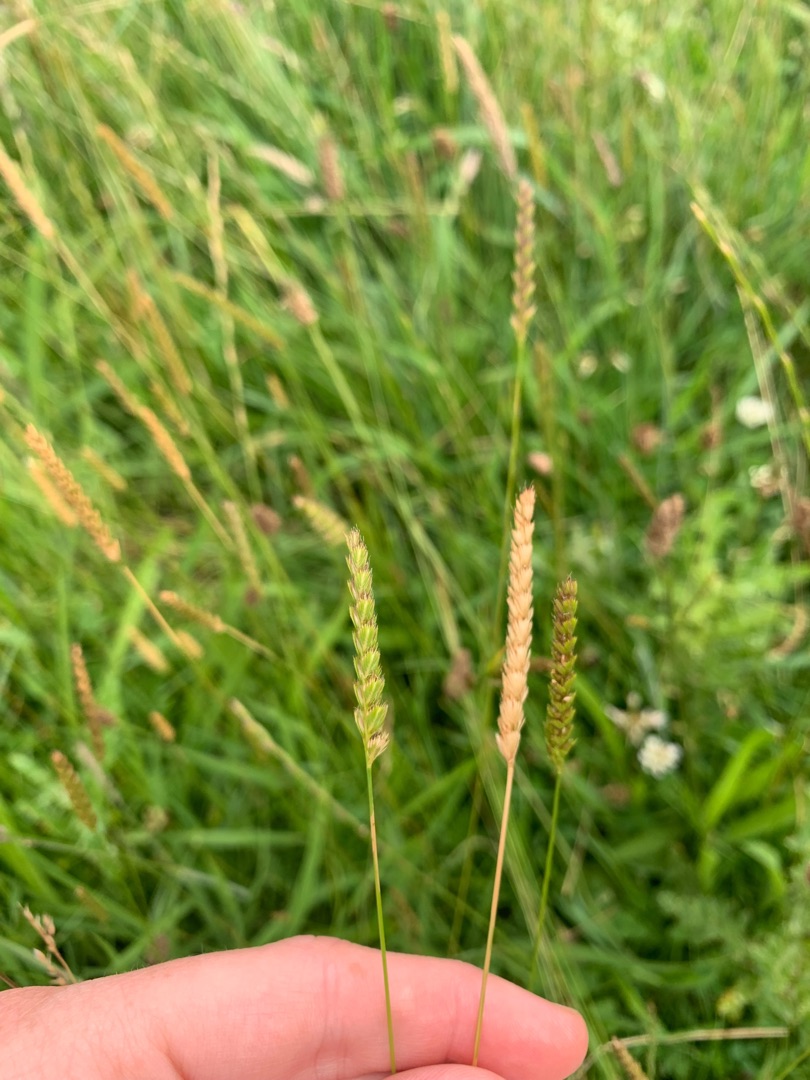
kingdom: Plantae
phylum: Tracheophyta
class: Liliopsida
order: Poales
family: Poaceae
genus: Cynosurus
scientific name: Cynosurus cristatus
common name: Kamgræs
